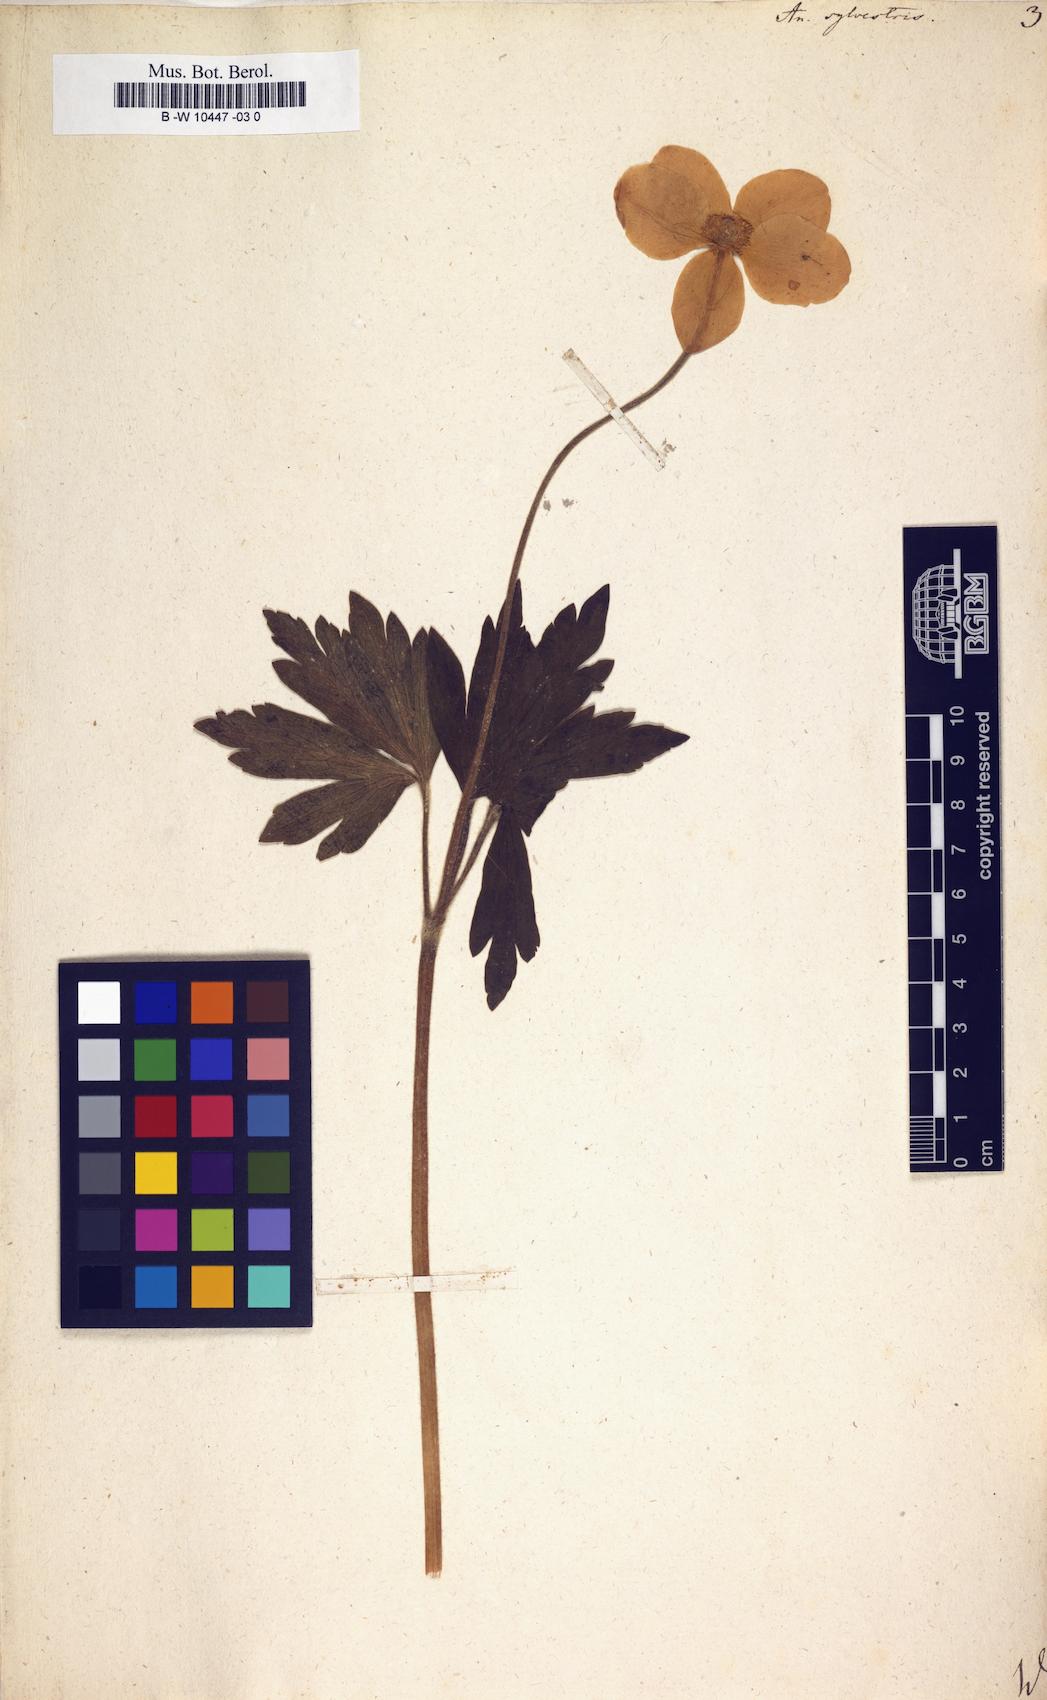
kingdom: Plantae
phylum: Tracheophyta
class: Magnoliopsida
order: Ranunculales
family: Ranunculaceae
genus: Anemone
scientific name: Anemone sylvestris
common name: Snowdrop anemone
